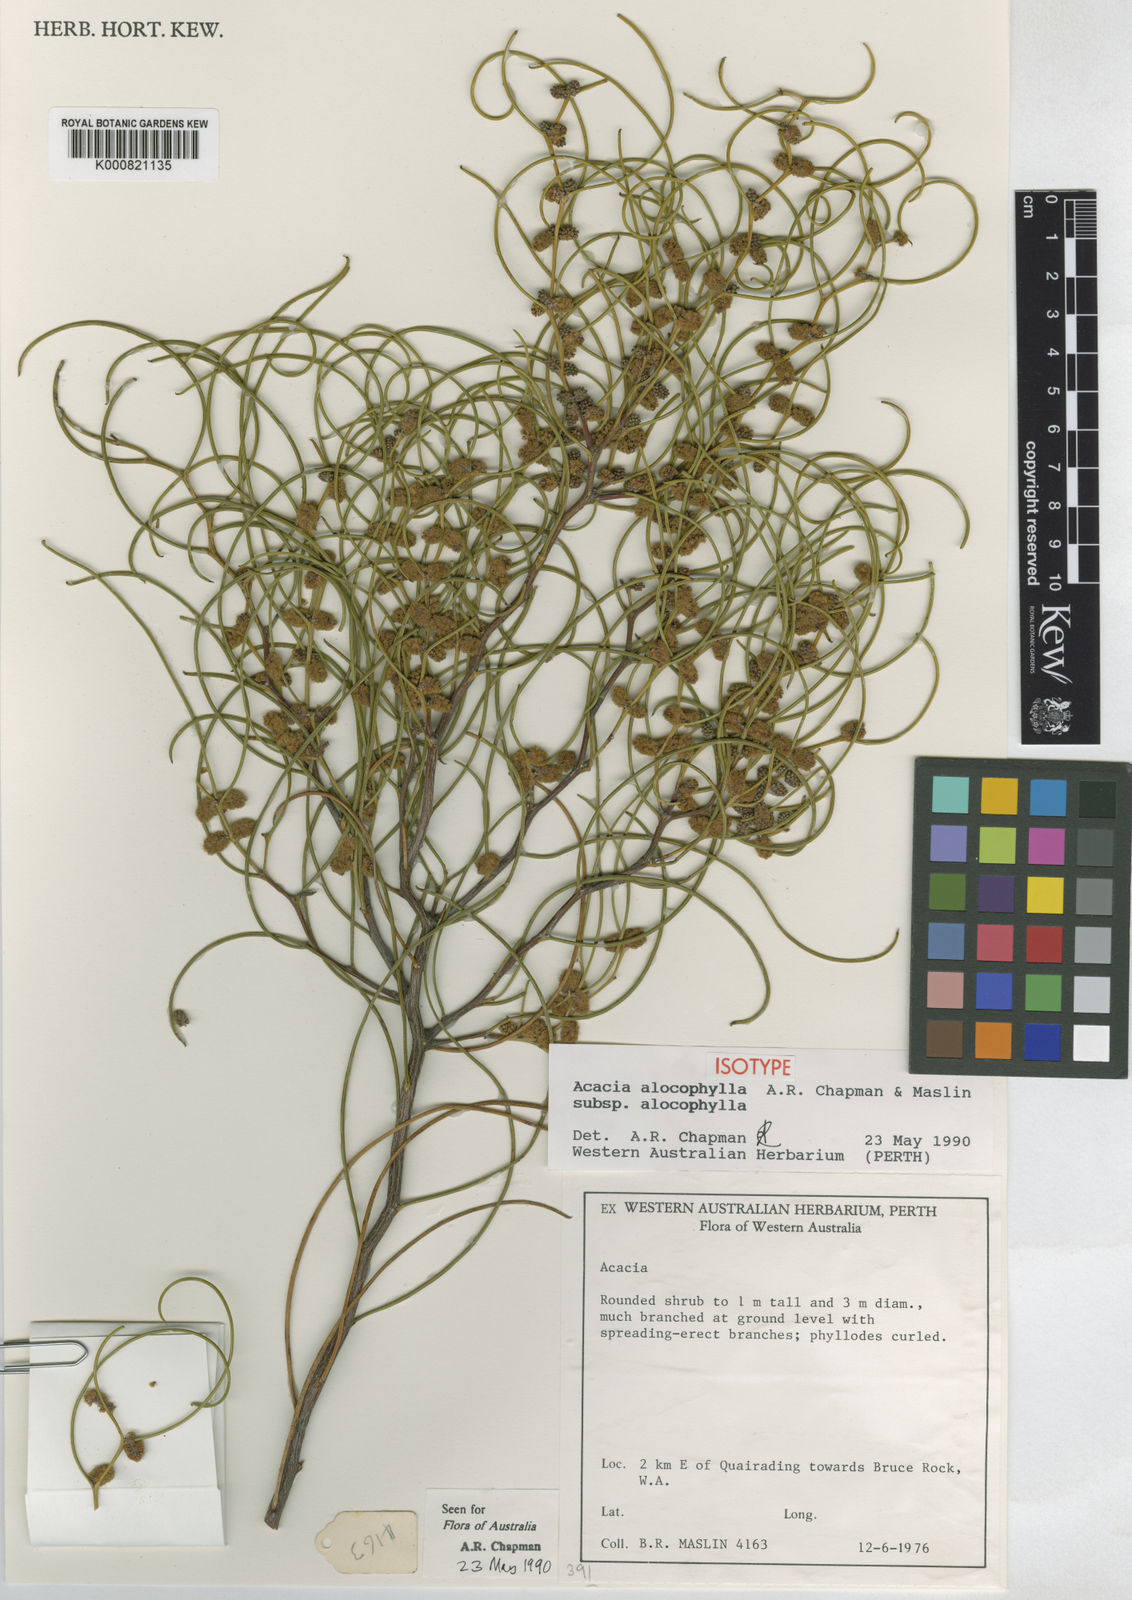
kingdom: Plantae
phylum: Tracheophyta
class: Magnoliopsida
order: Fabales
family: Fabaceae
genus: Acacia
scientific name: Acacia
